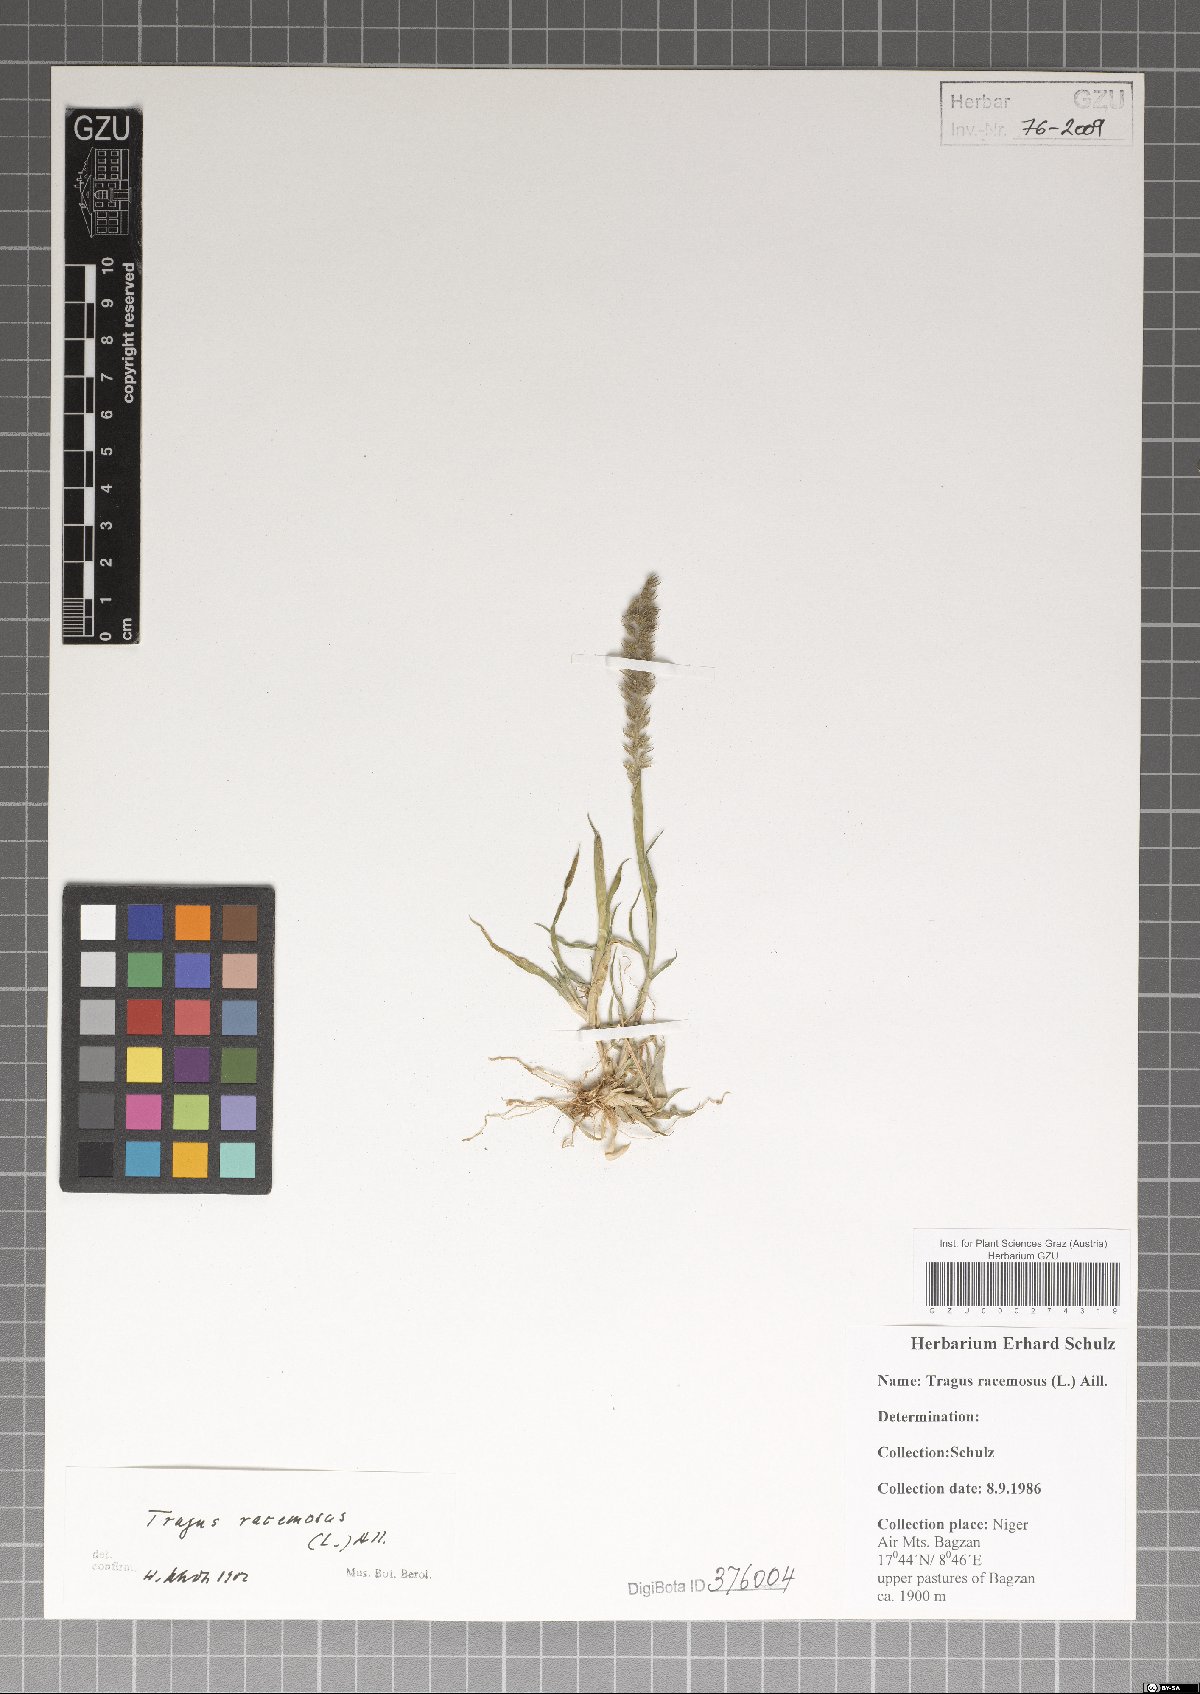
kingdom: Plantae
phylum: Tracheophyta
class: Liliopsida
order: Poales
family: Poaceae
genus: Tragus
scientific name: Tragus racemosus
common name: European bur-grass
